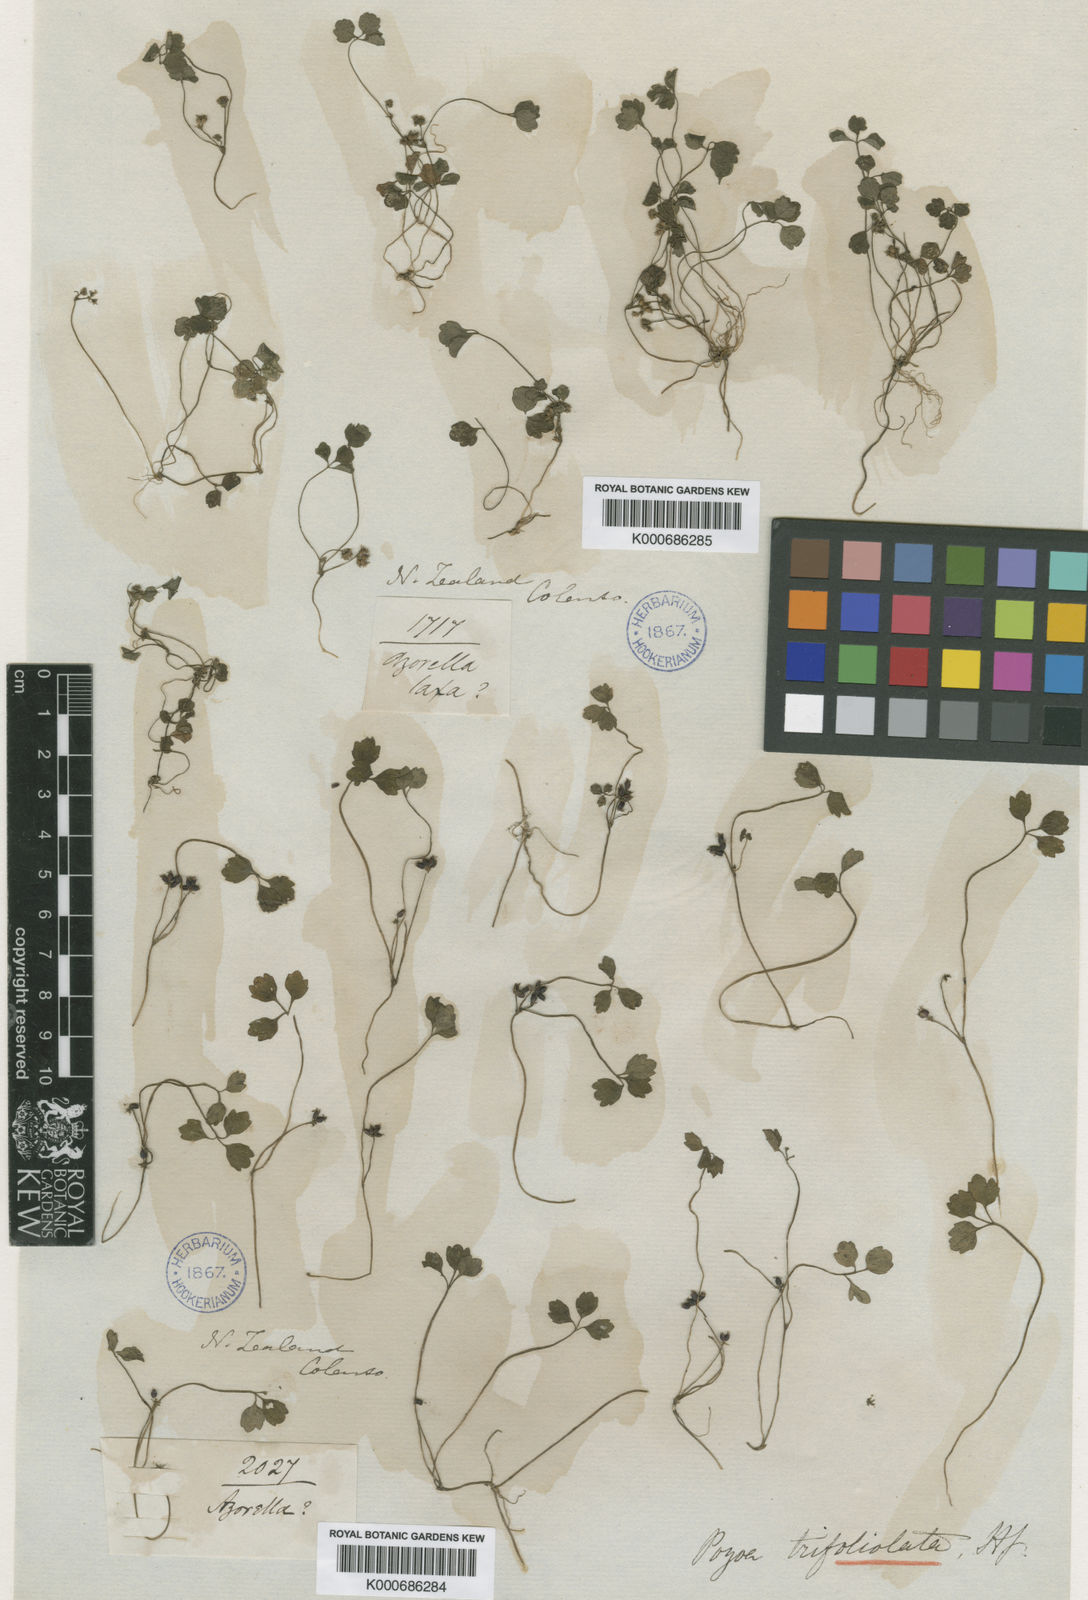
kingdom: Plantae
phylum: Tracheophyta
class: Magnoliopsida
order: Apiales
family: Apiaceae
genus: Azorella
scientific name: Azorella hookeri
